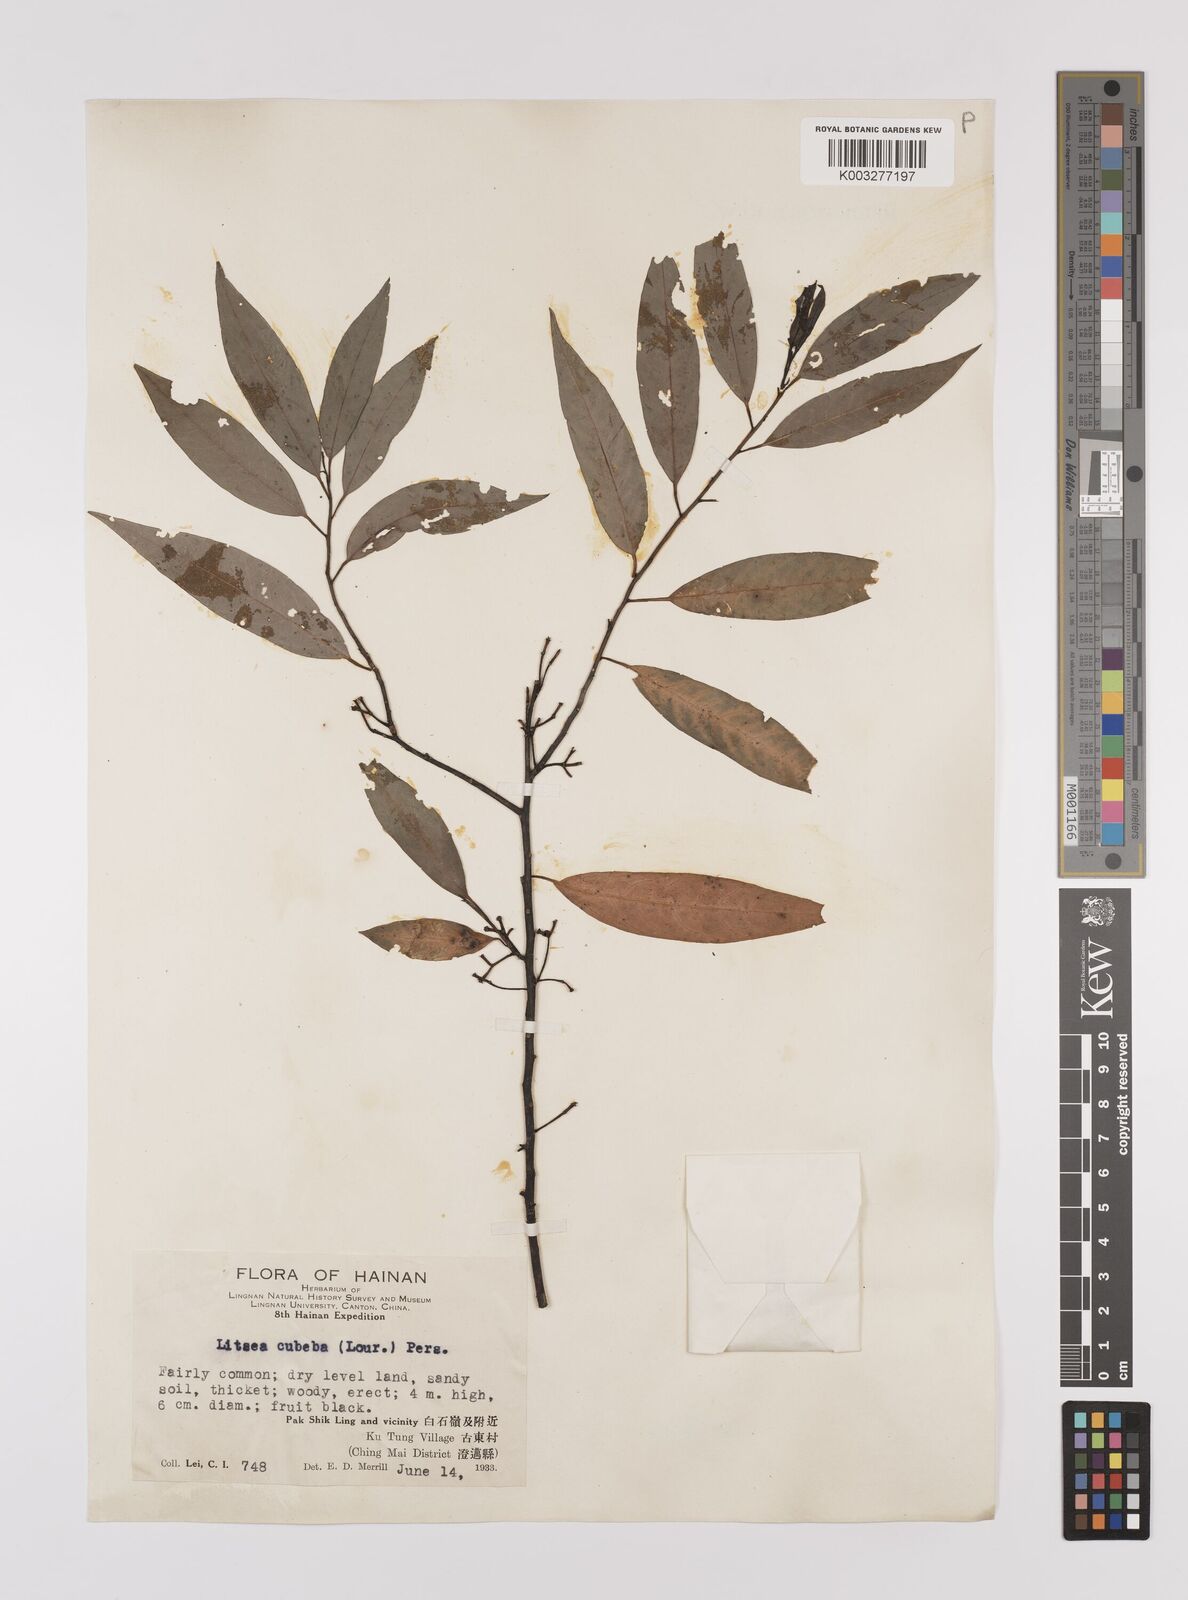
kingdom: Plantae
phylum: Tracheophyta
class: Magnoliopsida
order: Laurales
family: Lauraceae
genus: Litsea
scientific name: Litsea cubeba
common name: Mountain-pepper
